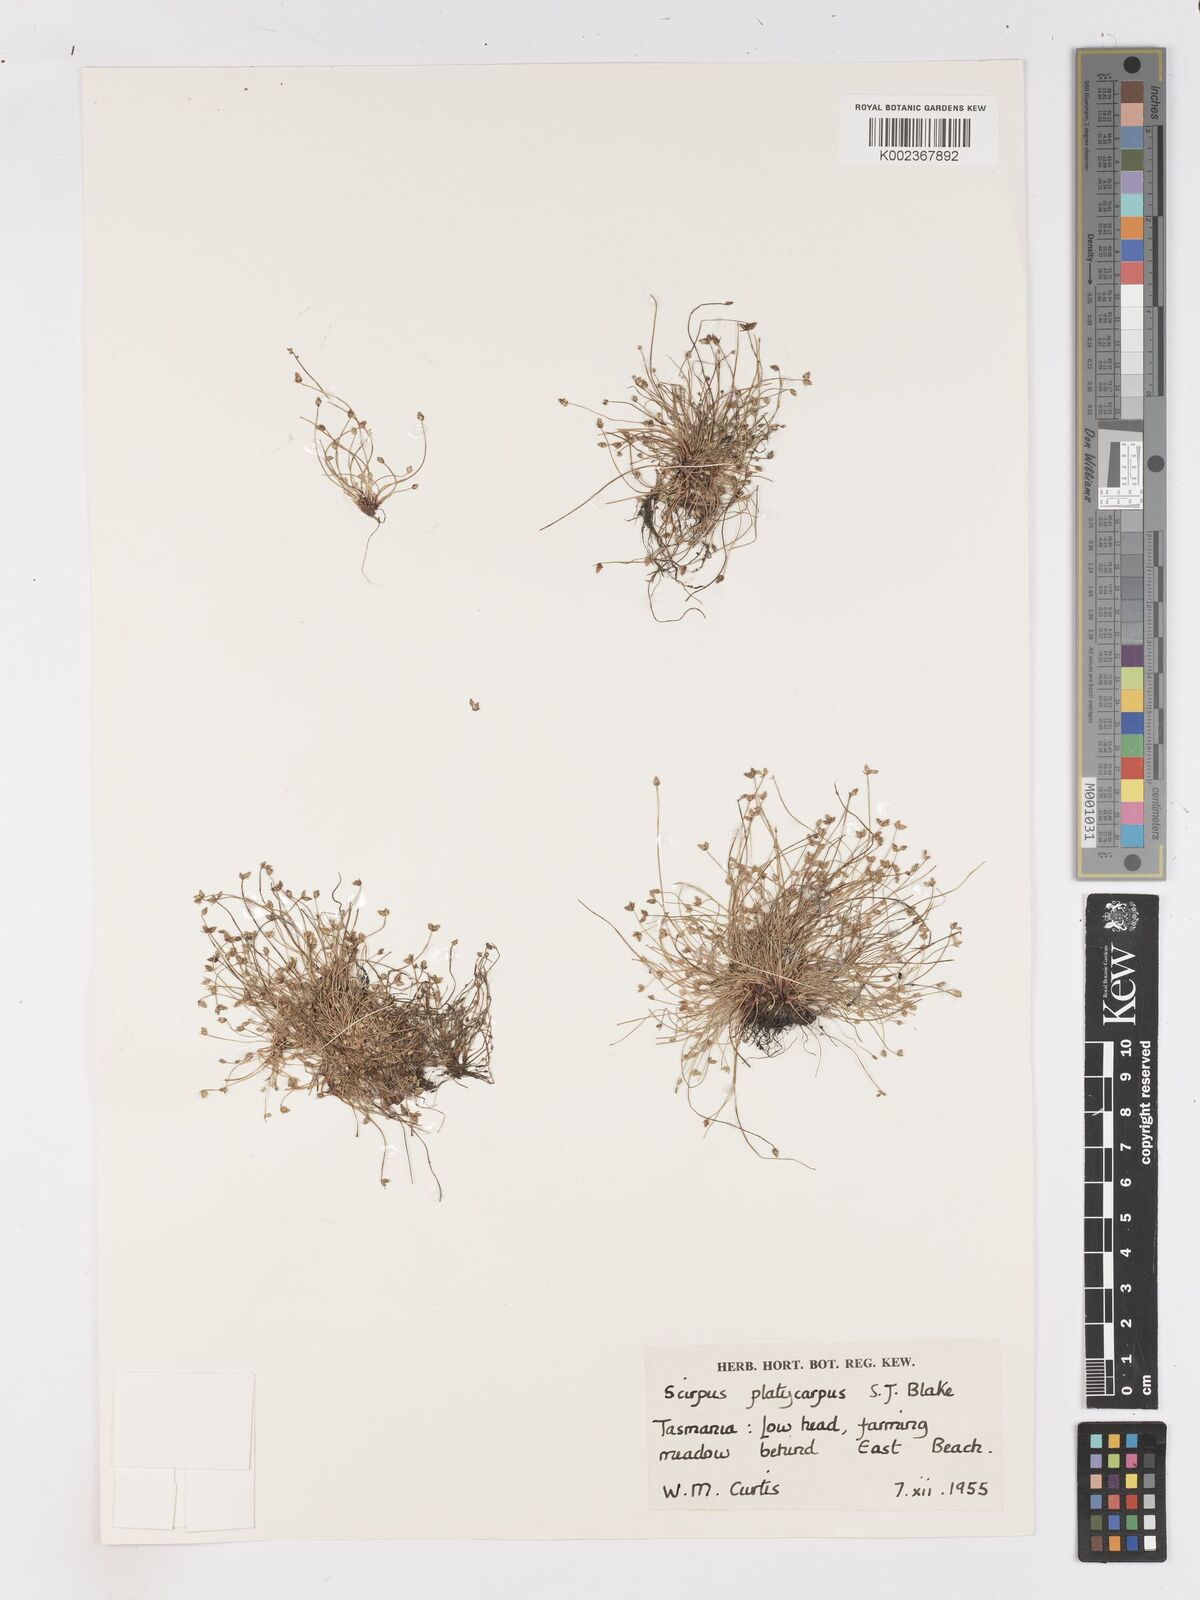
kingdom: Plantae
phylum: Tracheophyta
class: Liliopsida
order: Poales
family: Cyperaceae
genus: Isolepis
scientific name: Isolepis cernua
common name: Slender club-rush
